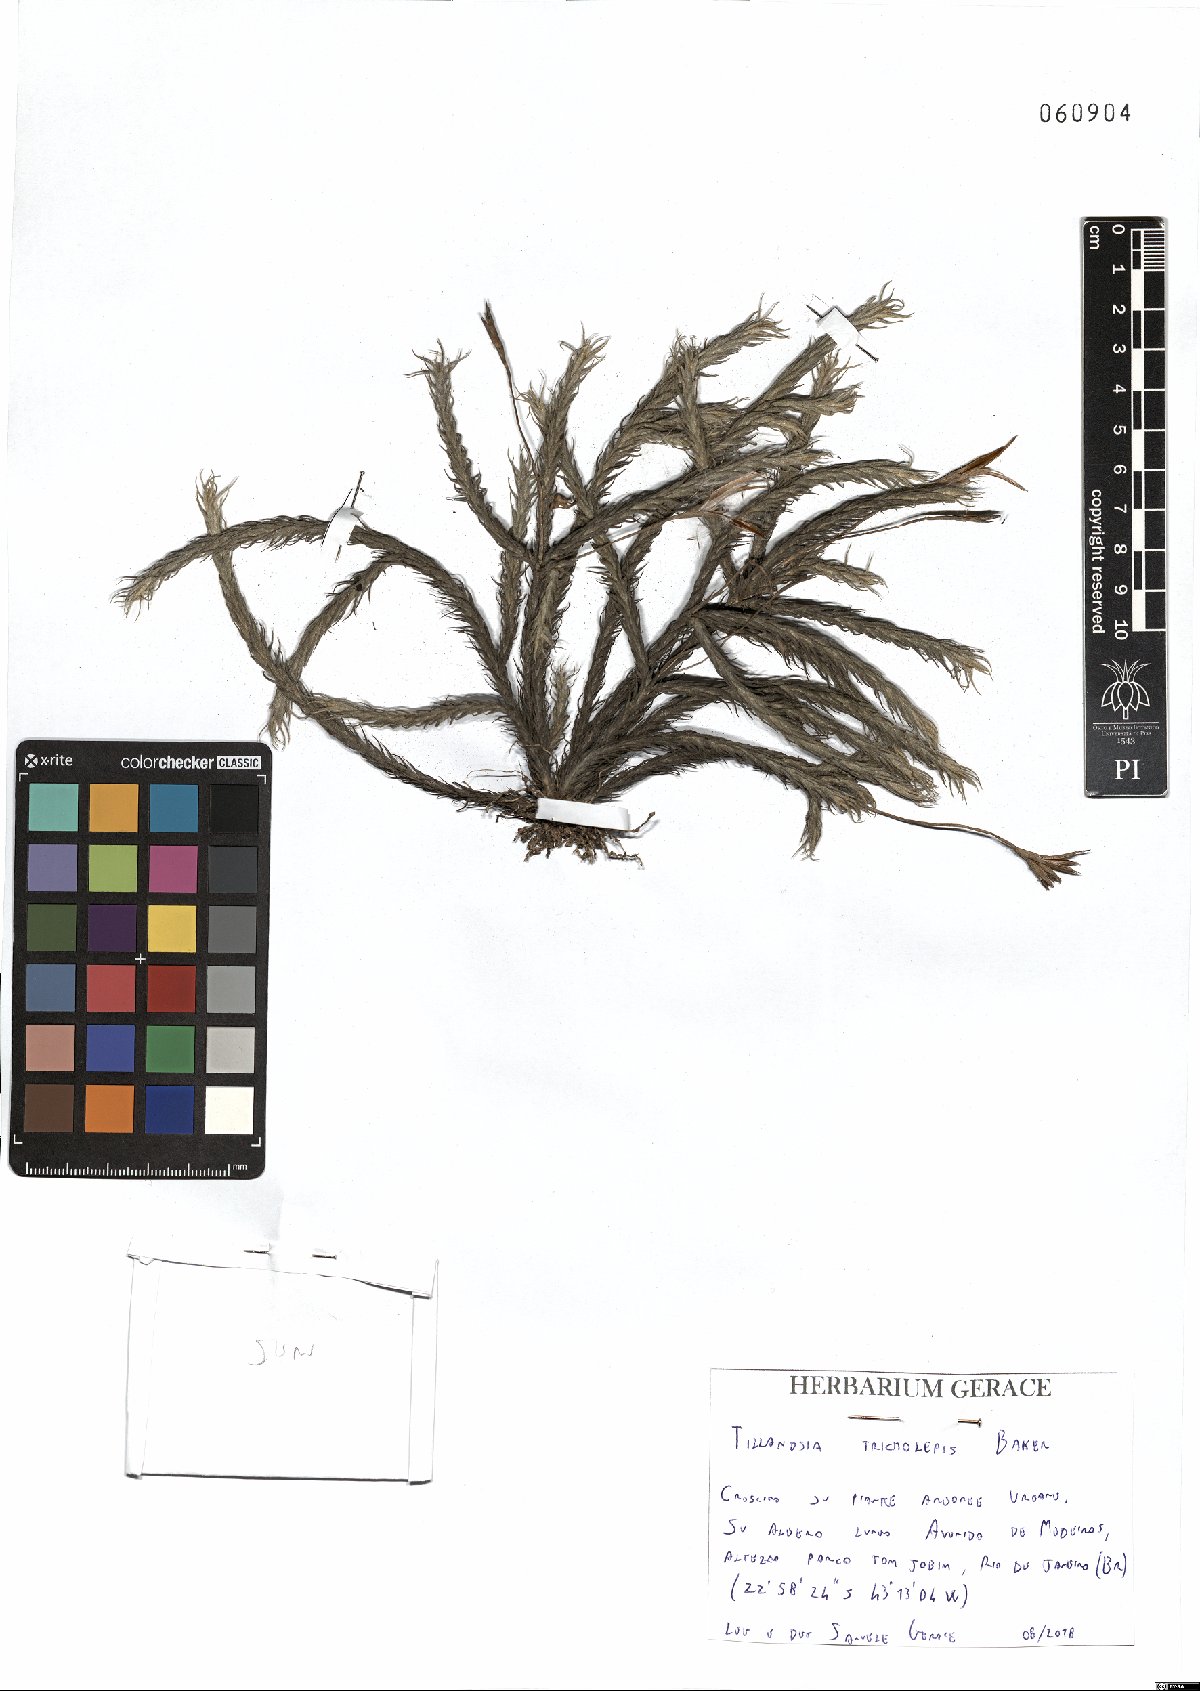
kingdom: Plantae
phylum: Tracheophyta
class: Liliopsida
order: Poales
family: Bromeliaceae
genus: Tillandsia
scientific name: Tillandsia tricholepis
